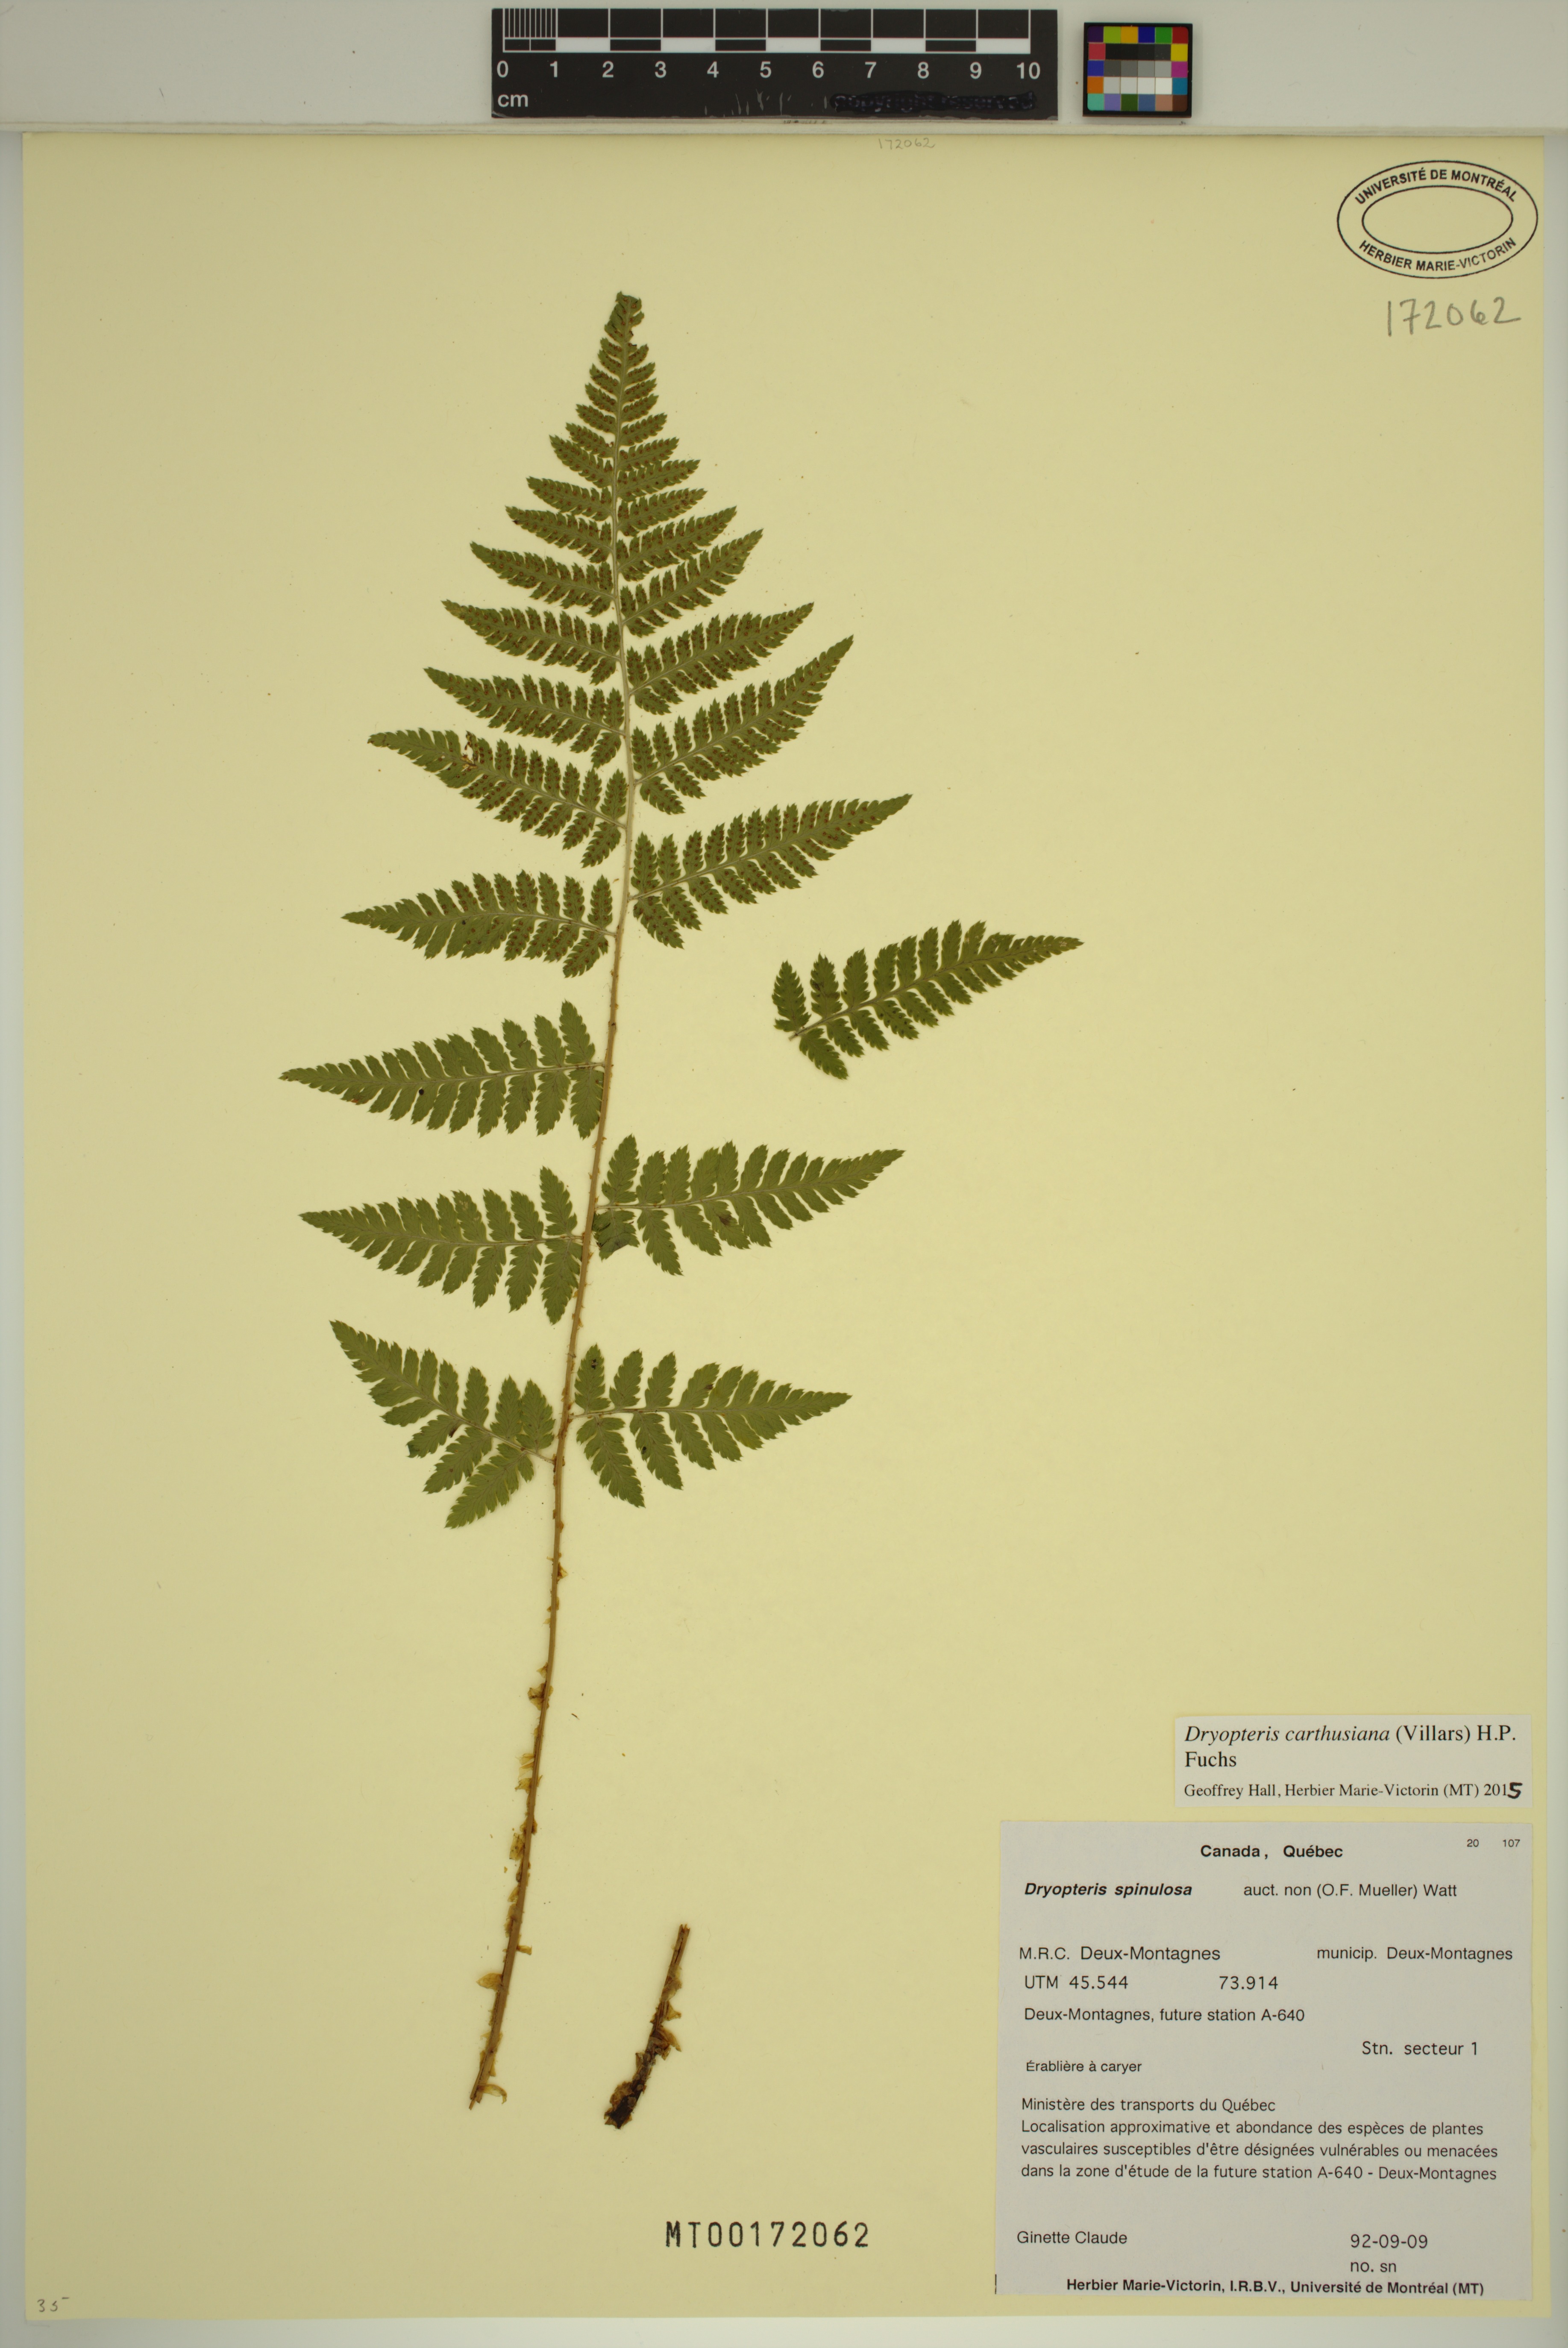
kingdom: Plantae
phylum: Tracheophyta
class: Polypodiopsida
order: Polypodiales
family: Dryopteridaceae
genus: Dryopteris
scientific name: Dryopteris carthusiana
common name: Narrow buckler-fern
